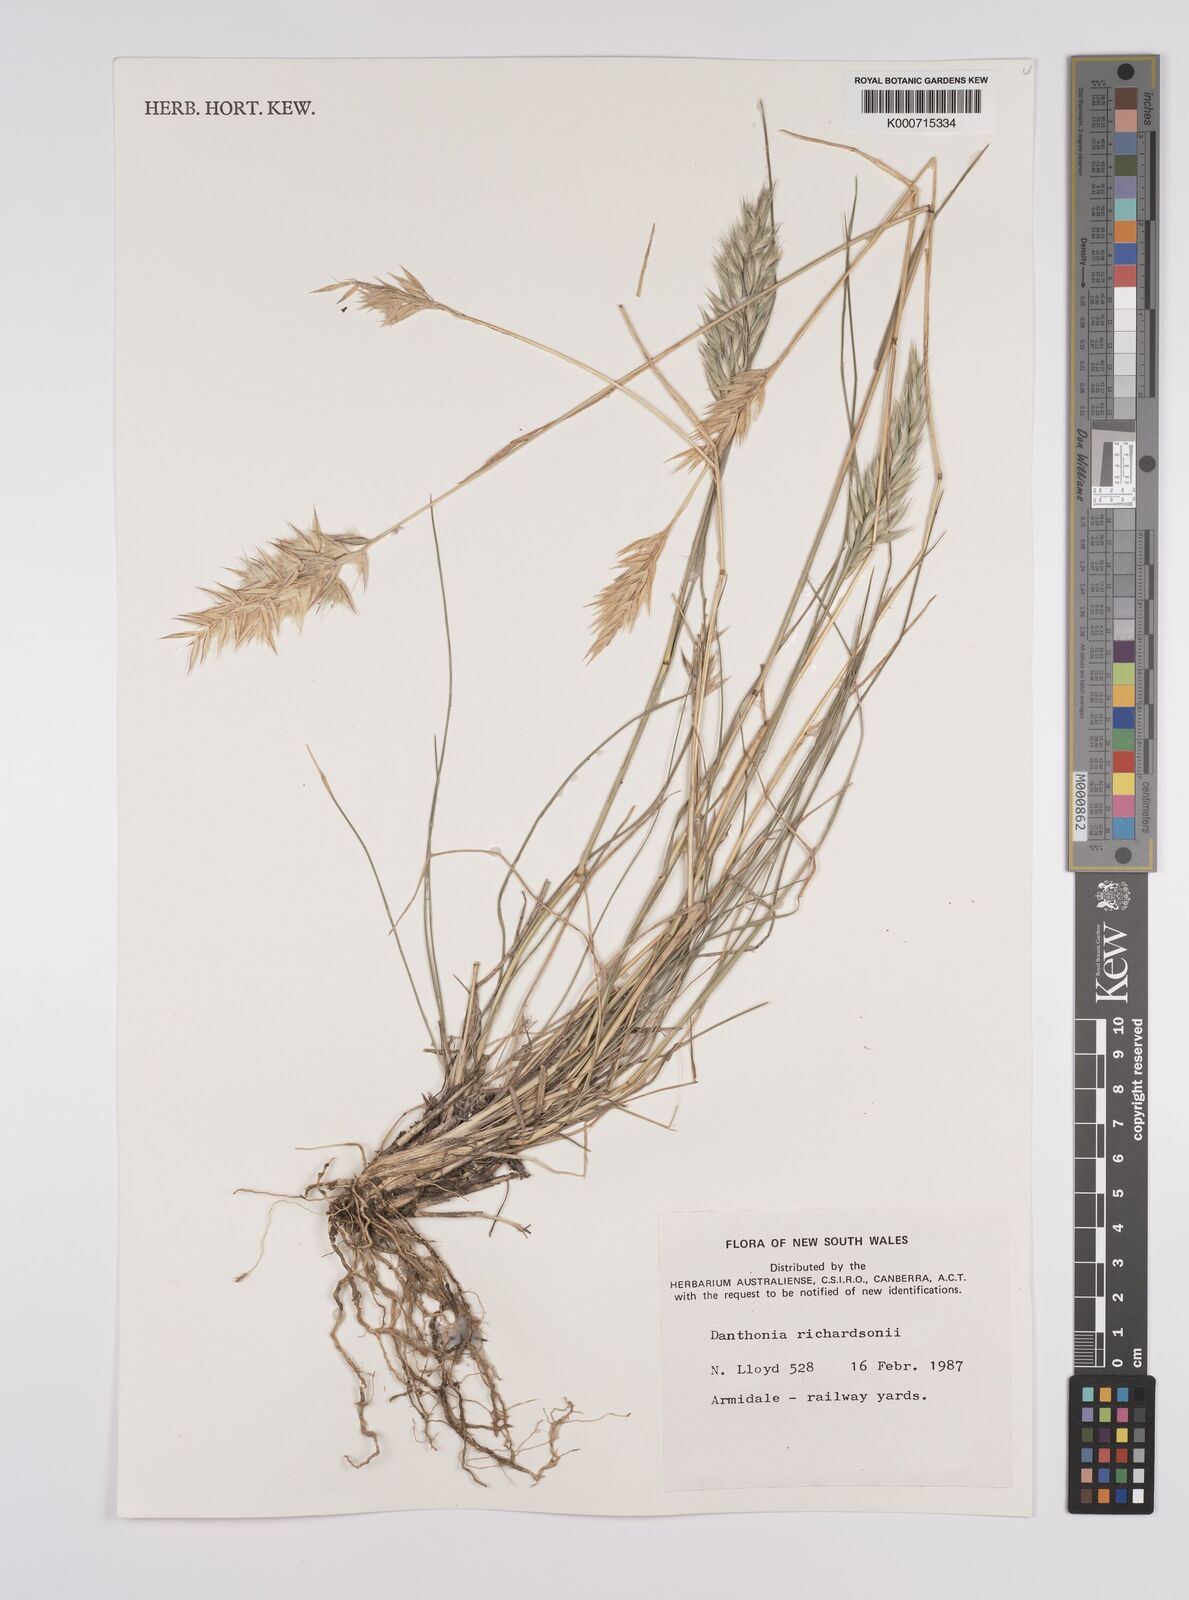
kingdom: Plantae
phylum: Tracheophyta
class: Liliopsida
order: Poales
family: Poaceae
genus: Rytidosperma
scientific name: Rytidosperma richardsonii
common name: Straw wallaby-grass
